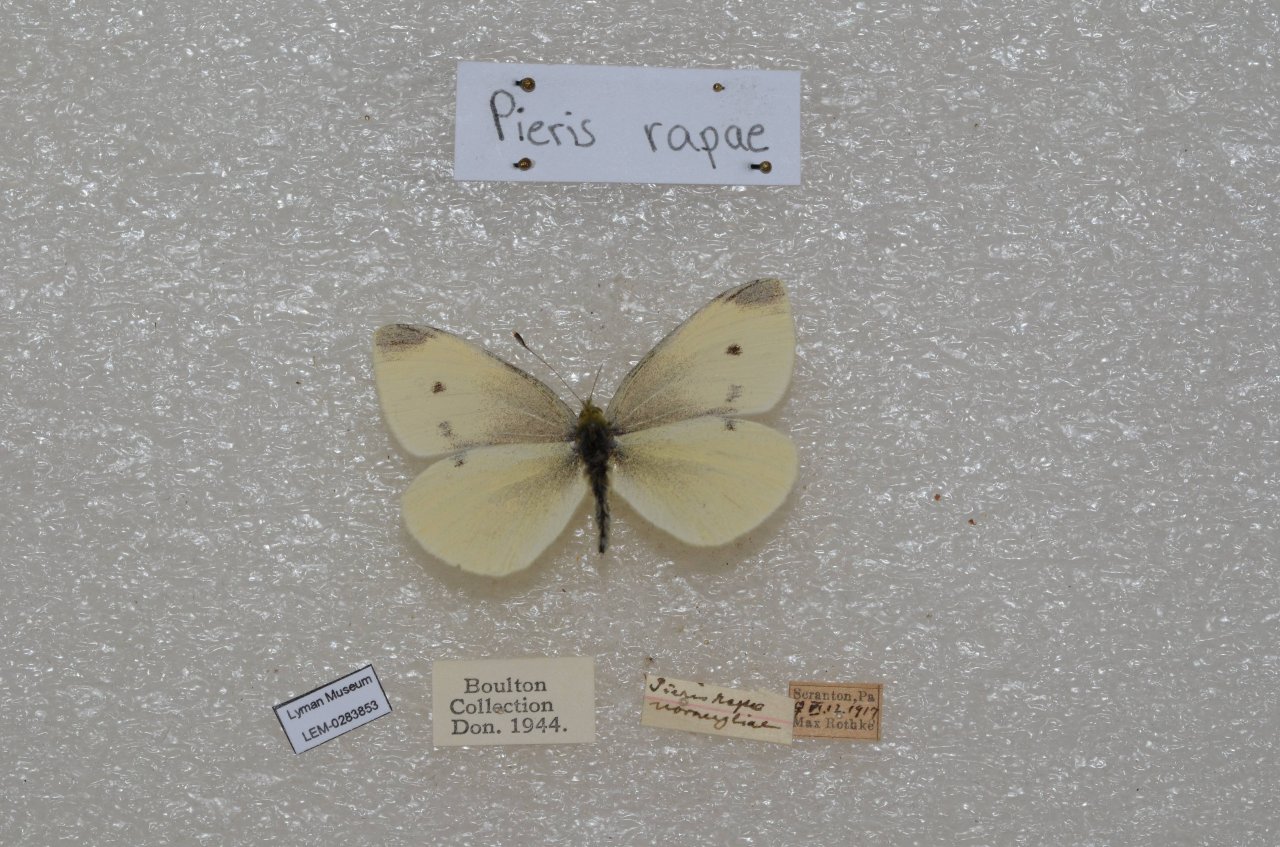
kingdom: Animalia
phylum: Arthropoda
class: Insecta
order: Lepidoptera
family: Pieridae
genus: Pieris
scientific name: Pieris rapae
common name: Cabbage White
